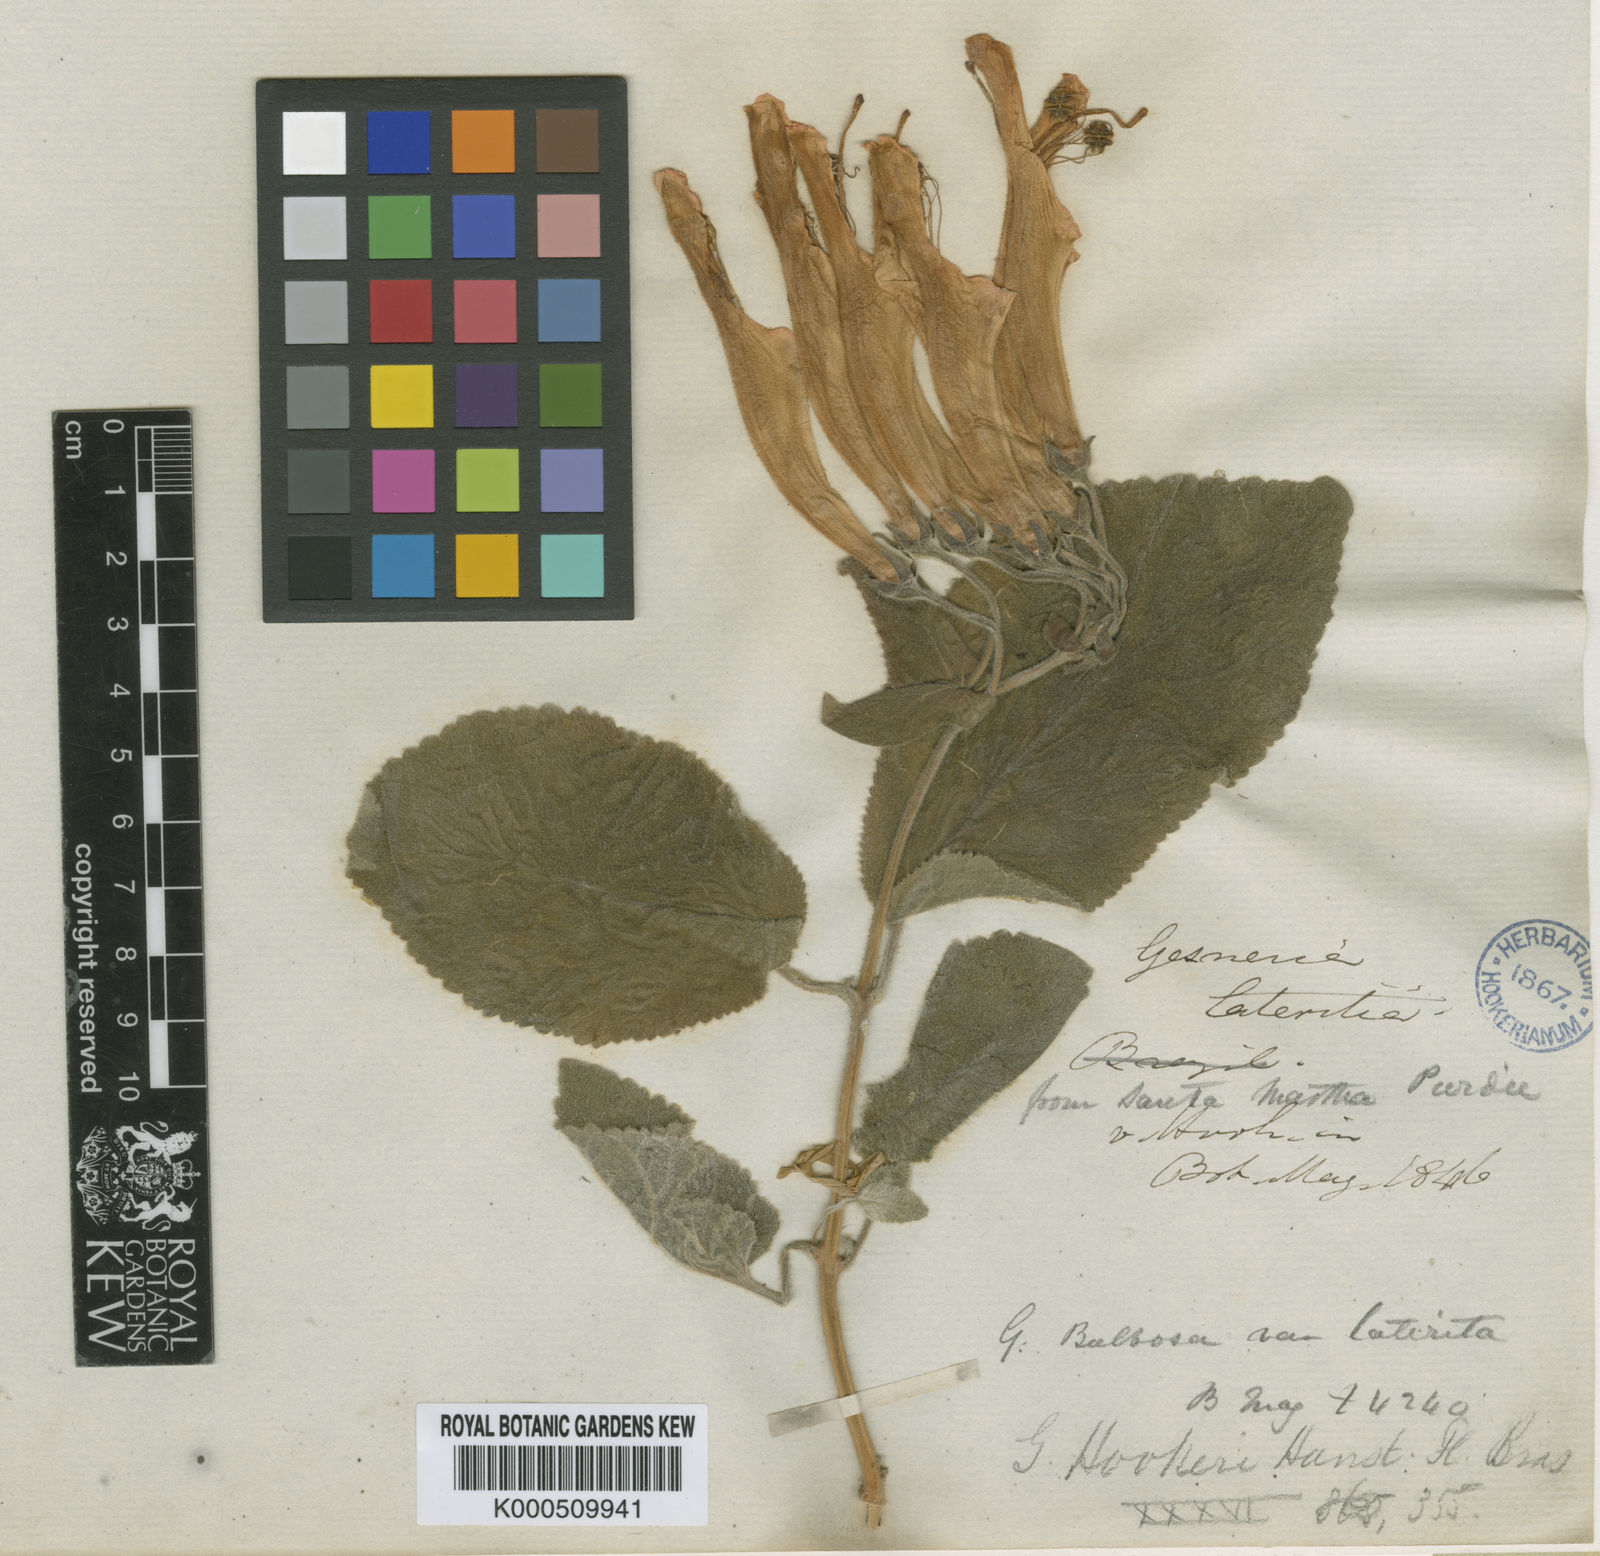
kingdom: Plantae
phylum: Tracheophyta
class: Magnoliopsida
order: Lamiales
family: Gesneriaceae
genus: Sinningia
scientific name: Sinningia cooperi
